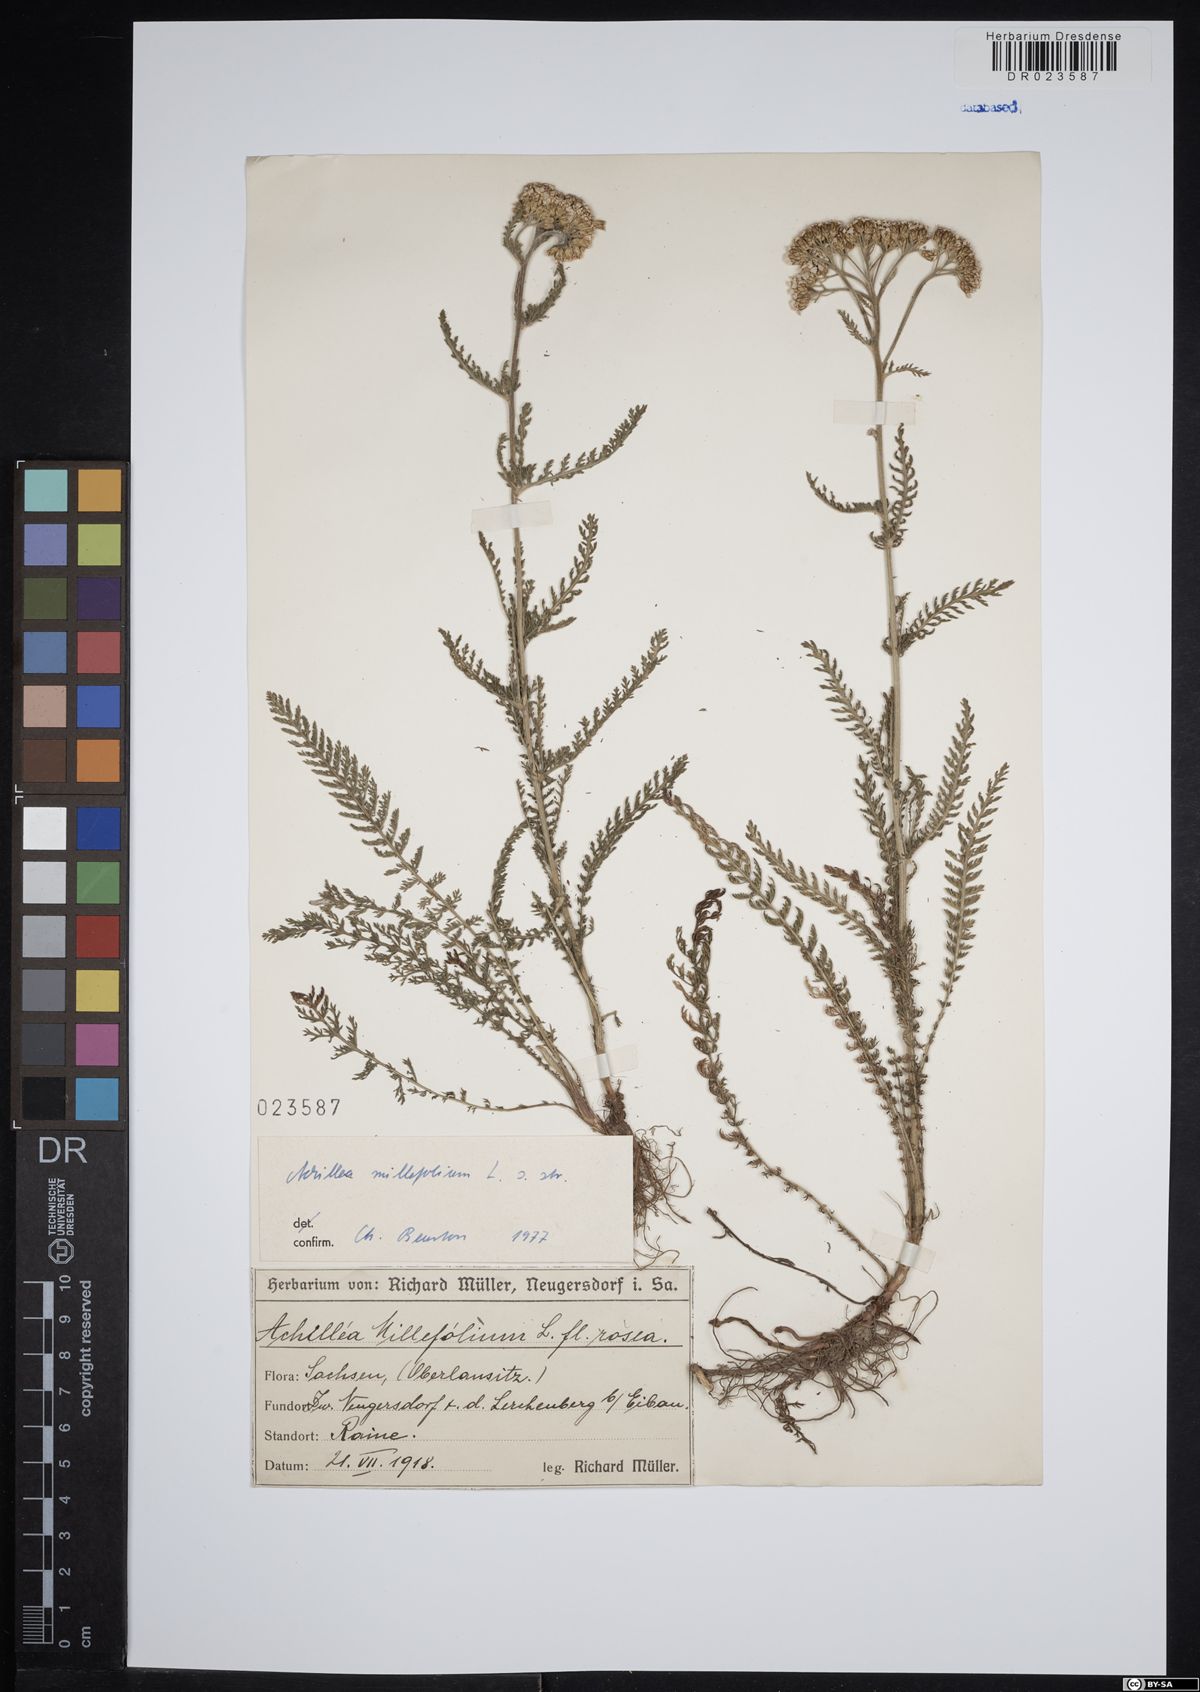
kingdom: Plantae
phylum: Tracheophyta
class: Magnoliopsida
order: Asterales
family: Asteraceae
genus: Achillea
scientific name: Achillea millefolium
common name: Yarrow
